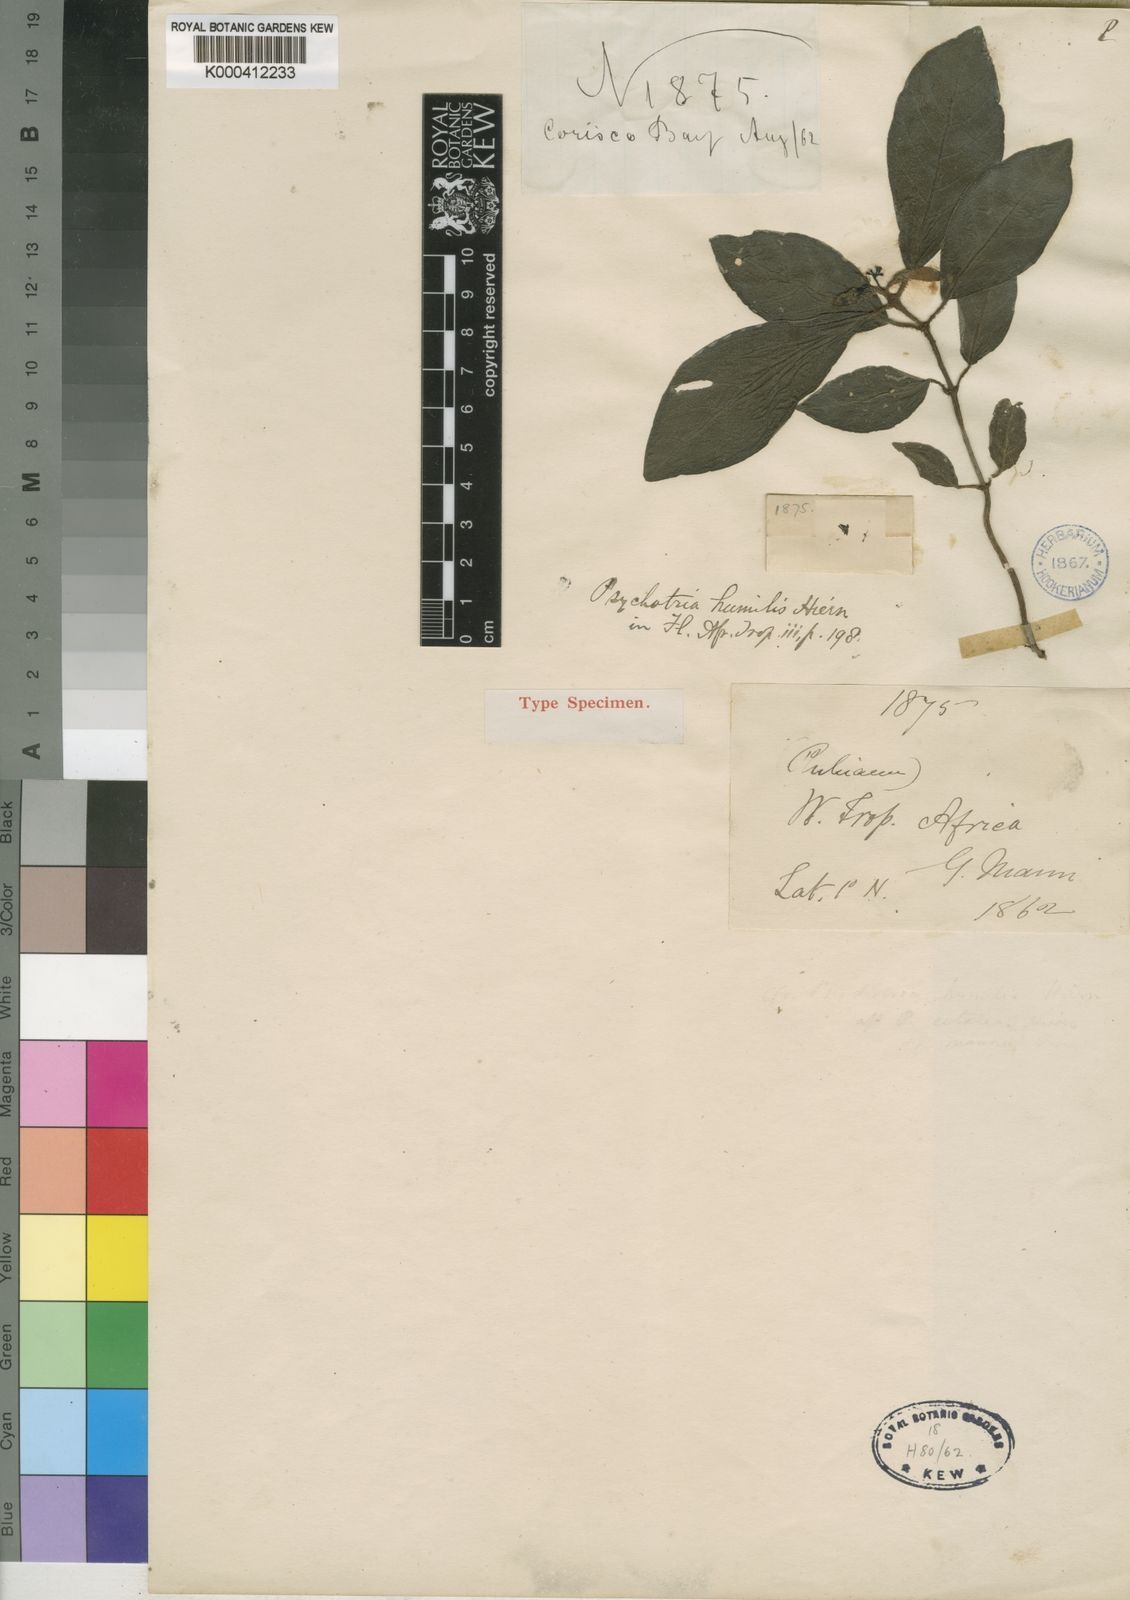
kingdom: Plantae
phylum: Tracheophyta
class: Magnoliopsida
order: Gentianales
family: Rubiaceae
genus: Psychotria
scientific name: Psychotria humilis
